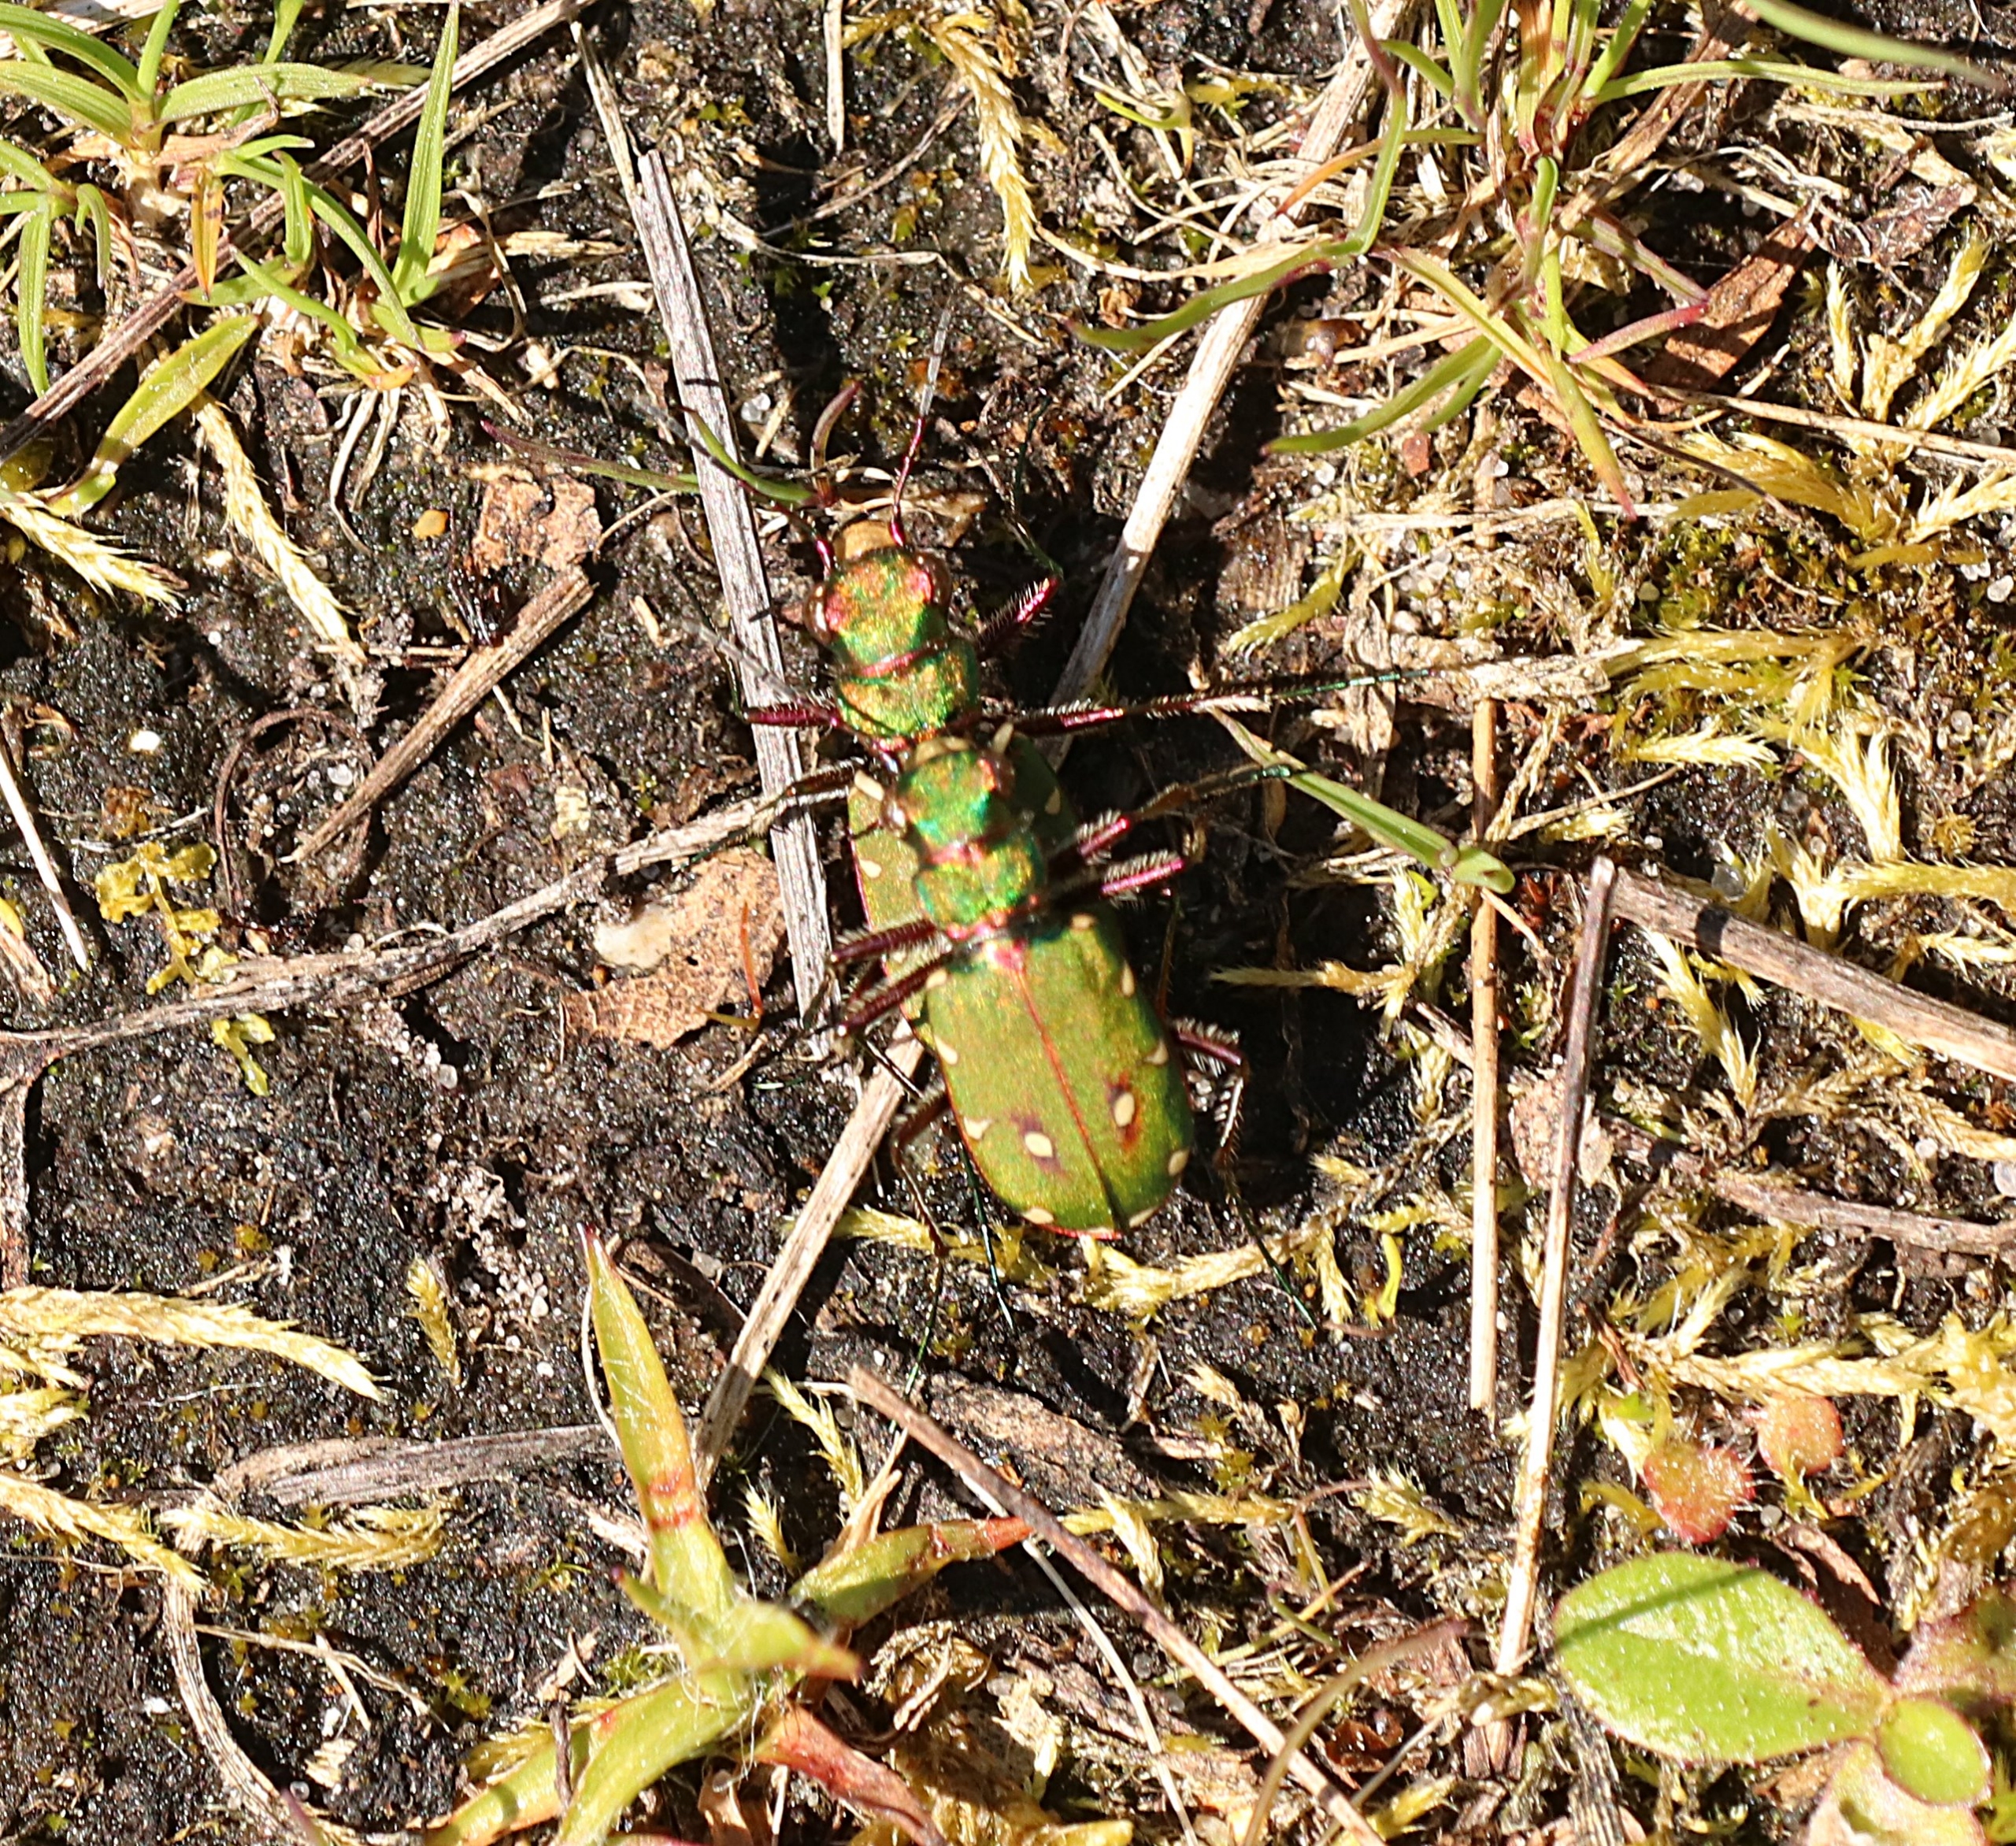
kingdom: Animalia
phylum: Arthropoda
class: Insecta
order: Coleoptera
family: Carabidae
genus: Cicindela
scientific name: Cicindela campestris
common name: Grøn sandspringer
